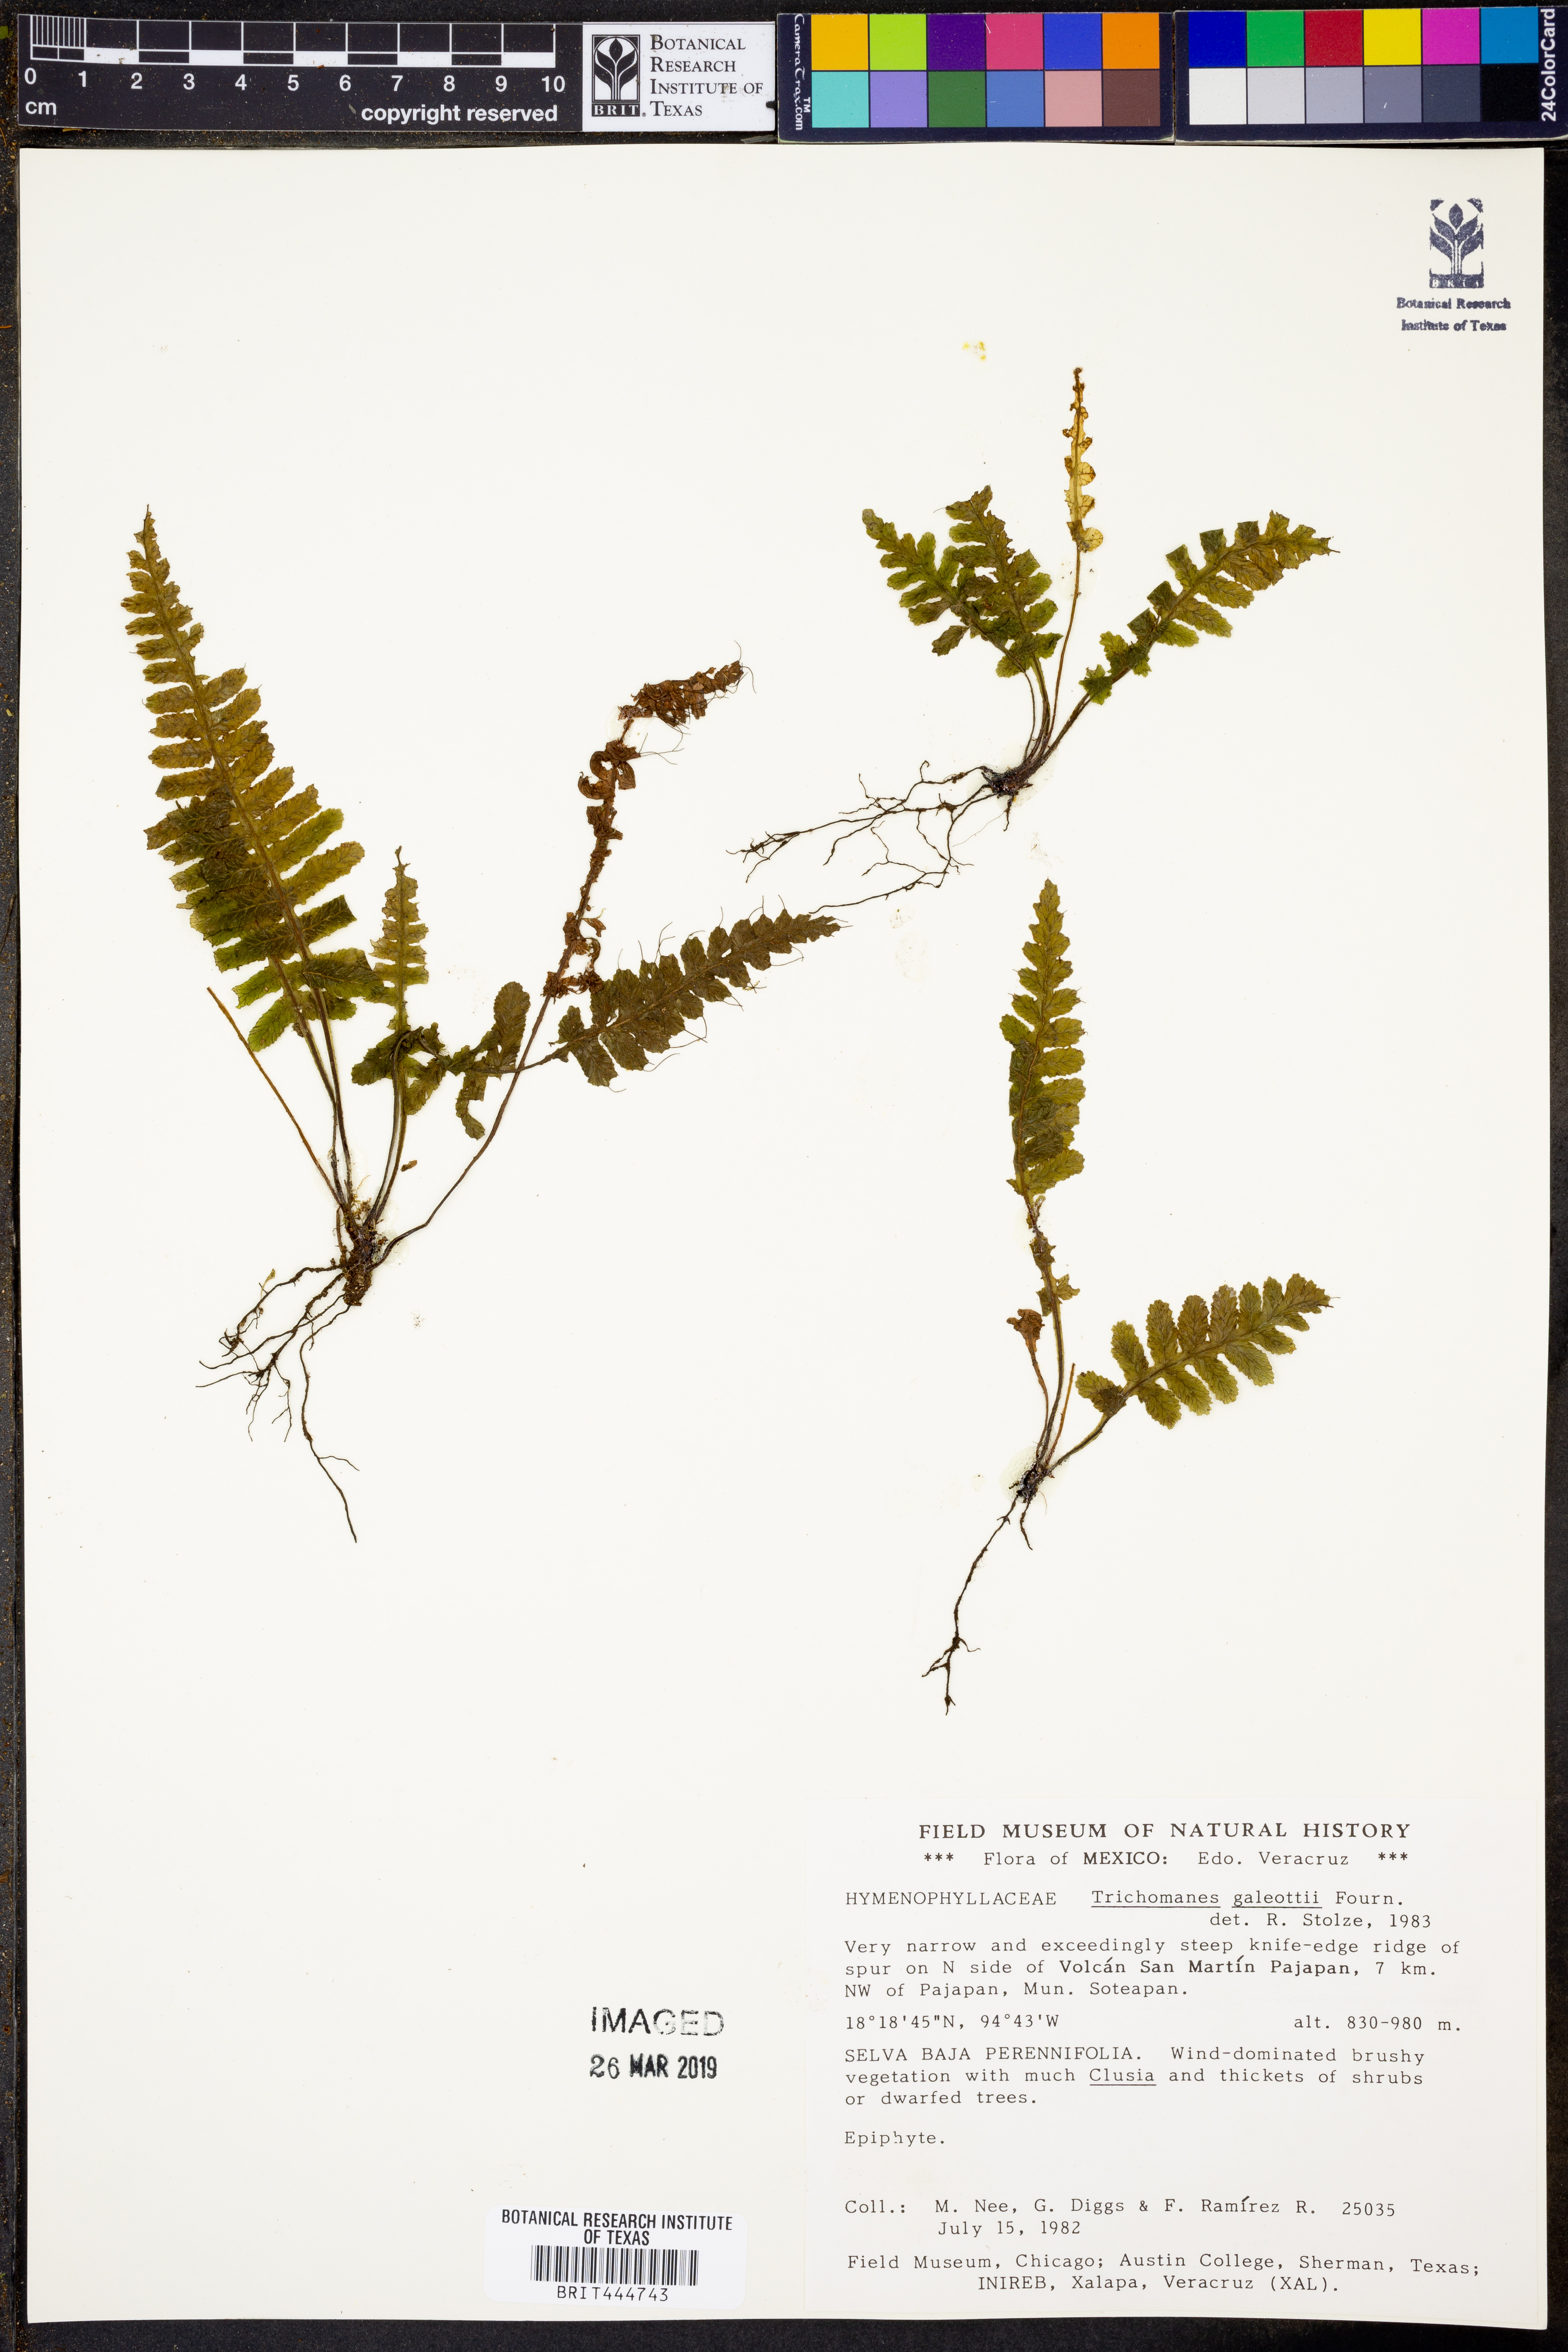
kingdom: Plantae
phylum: Tracheophyta
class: Polypodiopsida
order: Hymenophyllales
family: Hymenophyllaceae
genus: Trichomanes
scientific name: Trichomanes galeottii
